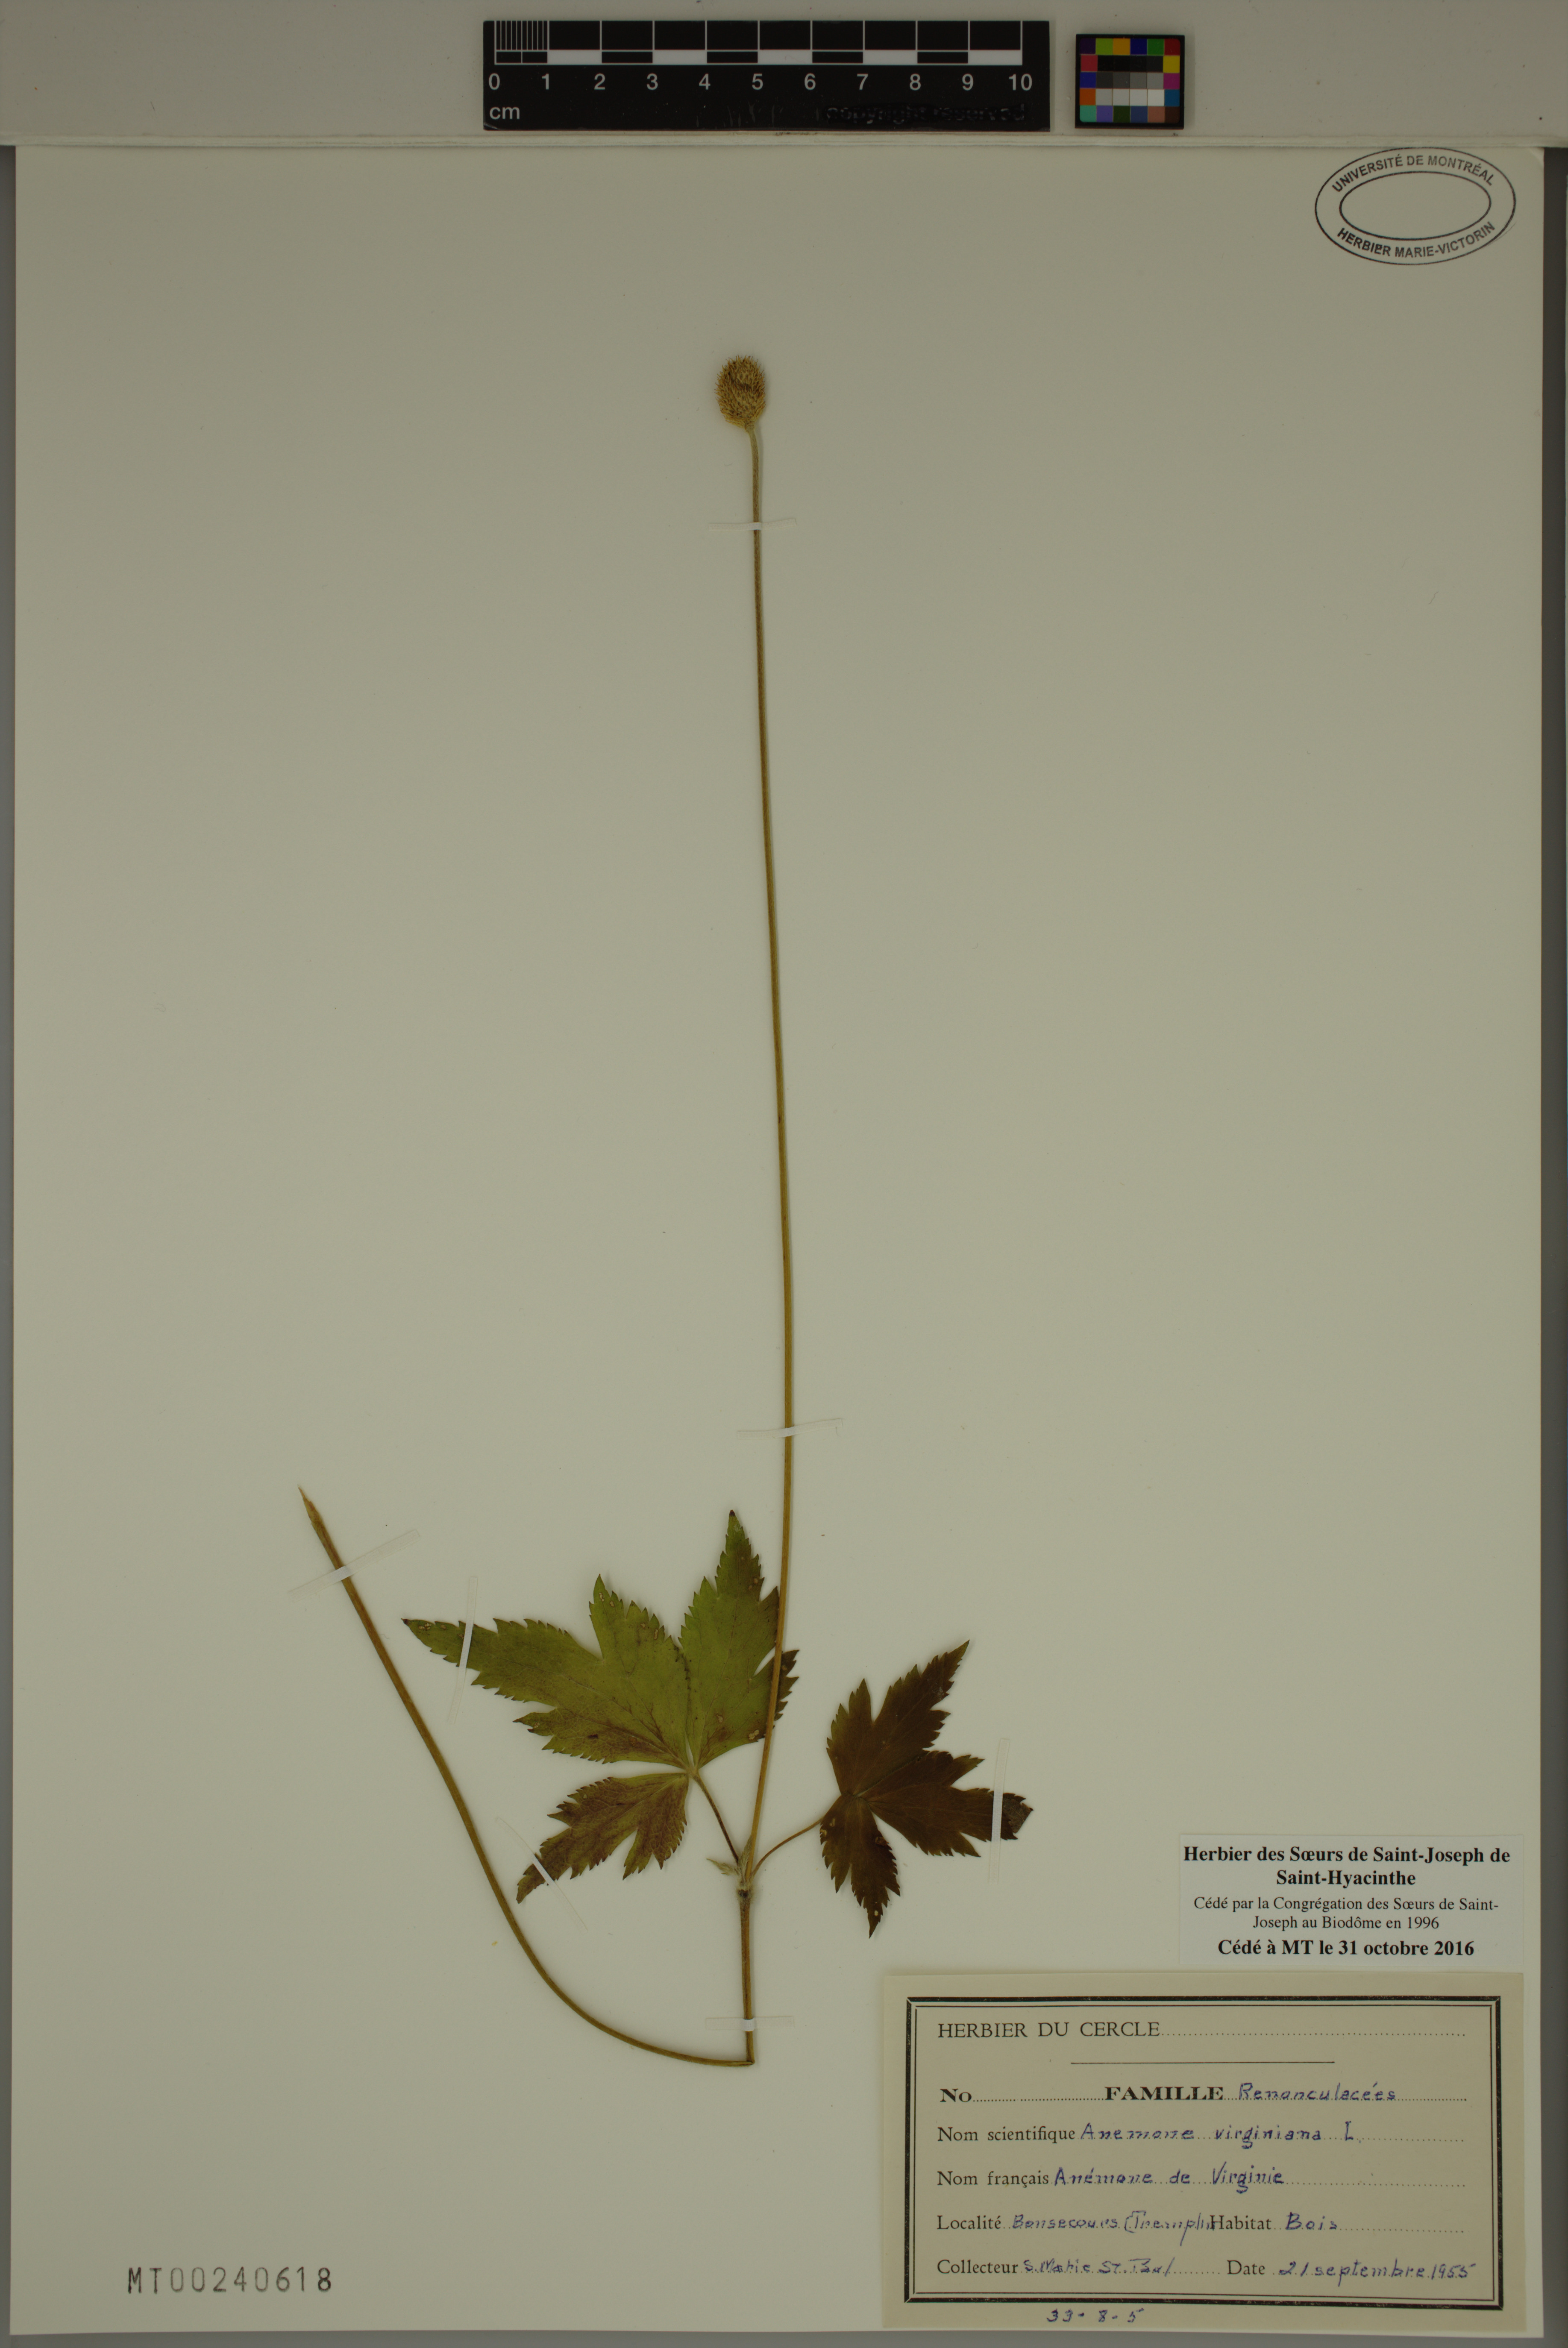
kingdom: Plantae
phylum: Tracheophyta
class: Magnoliopsida
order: Ranunculales
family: Ranunculaceae
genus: Anemone
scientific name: Anemone virginiana
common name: Tall anemone
